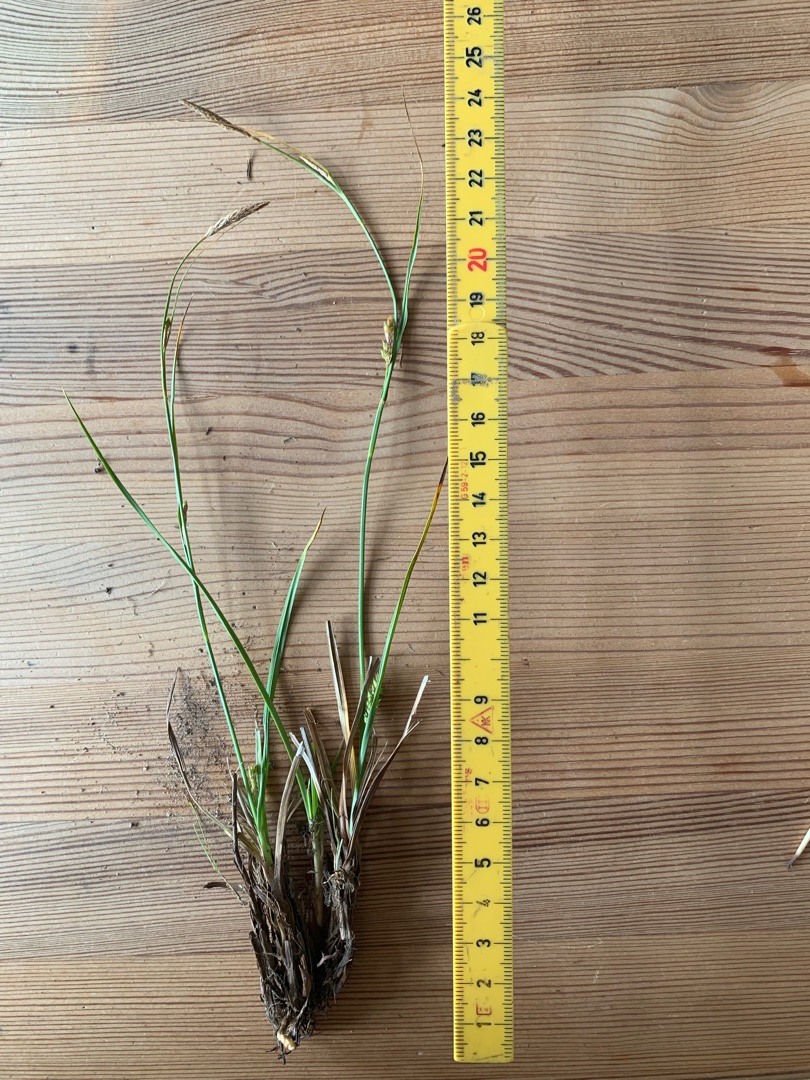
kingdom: Plantae
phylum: Tracheophyta
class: Liliopsida
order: Poales
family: Cyperaceae
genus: Carex
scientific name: Carex distans
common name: Fjernakset star
